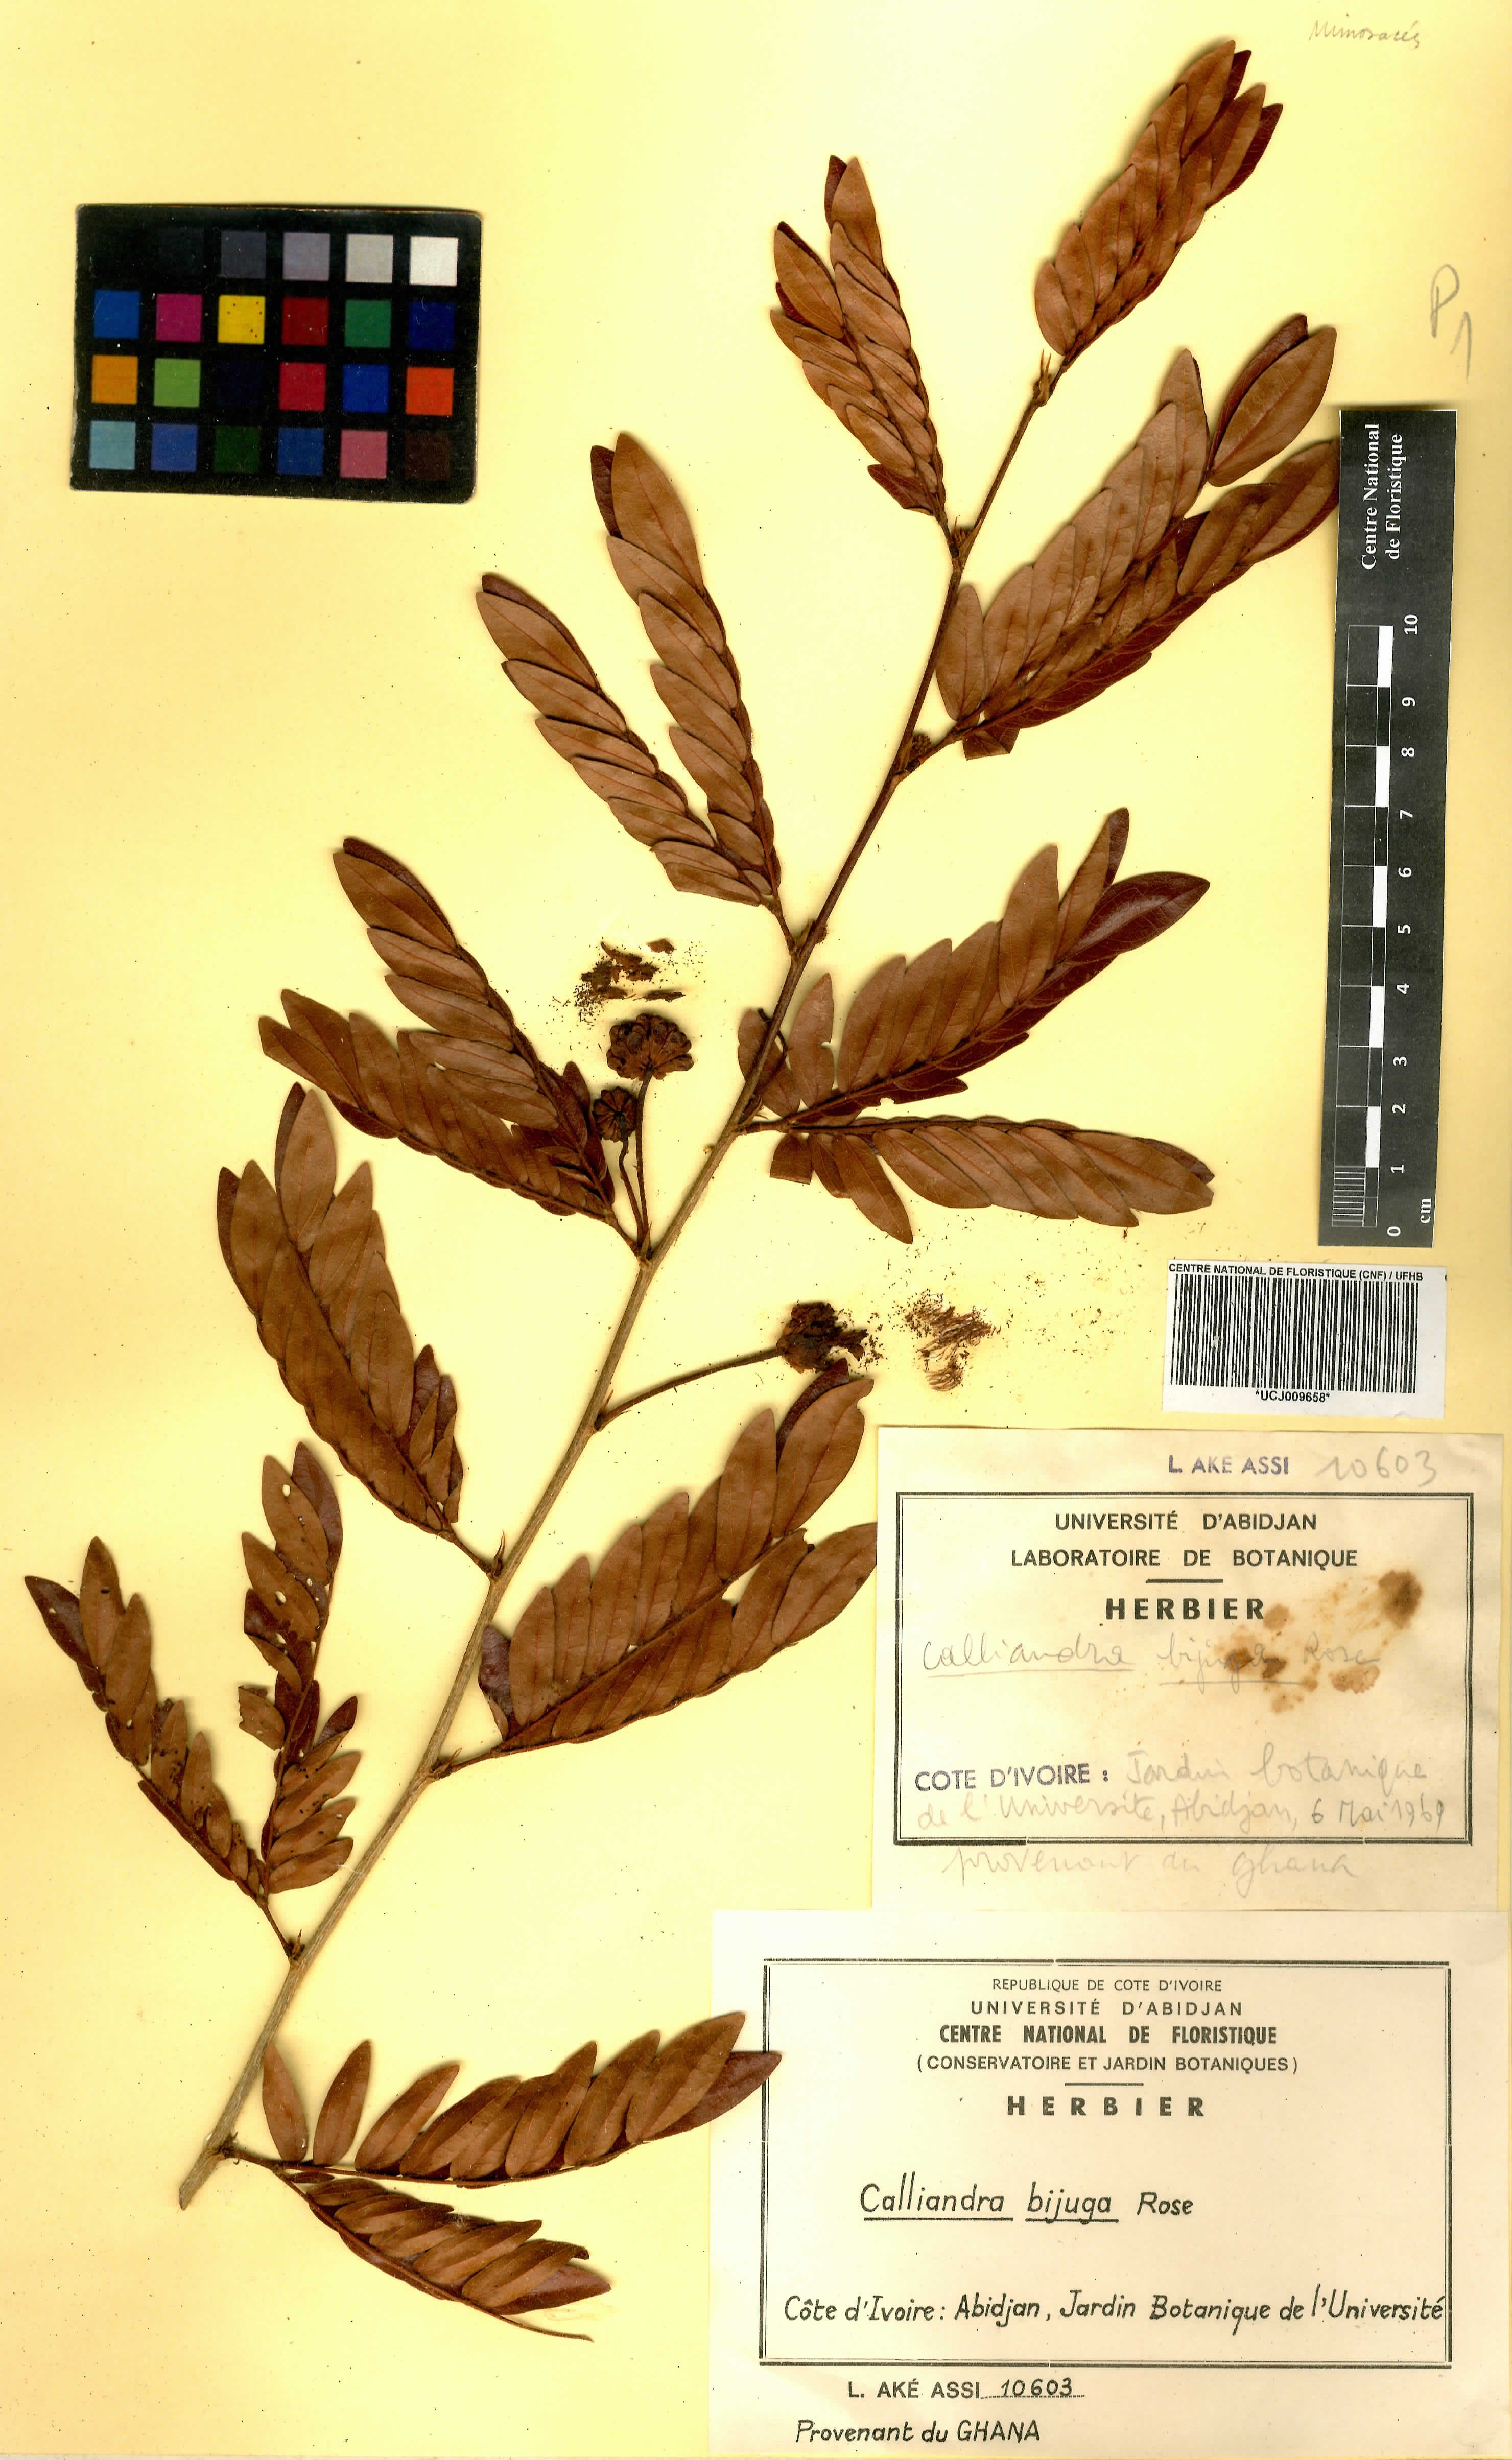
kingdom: Plantae
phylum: Tracheophyta
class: Magnoliopsida
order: Fabales
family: Fabaceae
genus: Calliandra
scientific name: Calliandra bijuga
